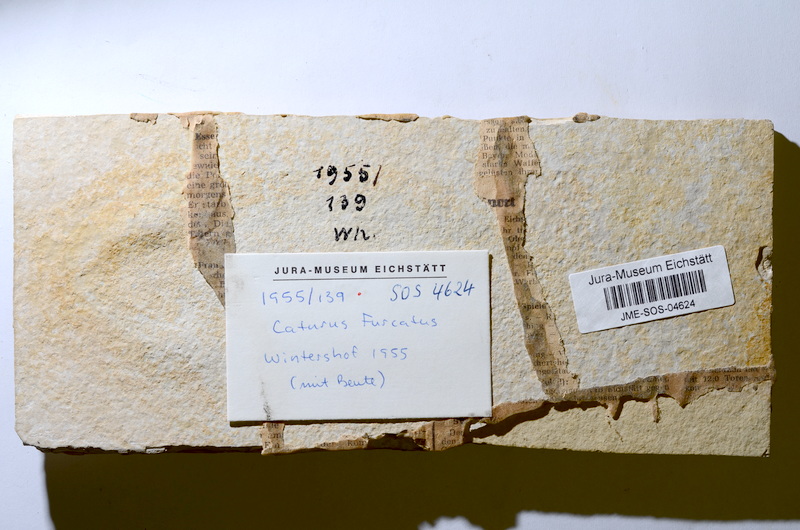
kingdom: Animalia
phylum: Chordata
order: Amiiformes
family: Caturidae
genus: Caturus
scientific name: Caturus furcatus
